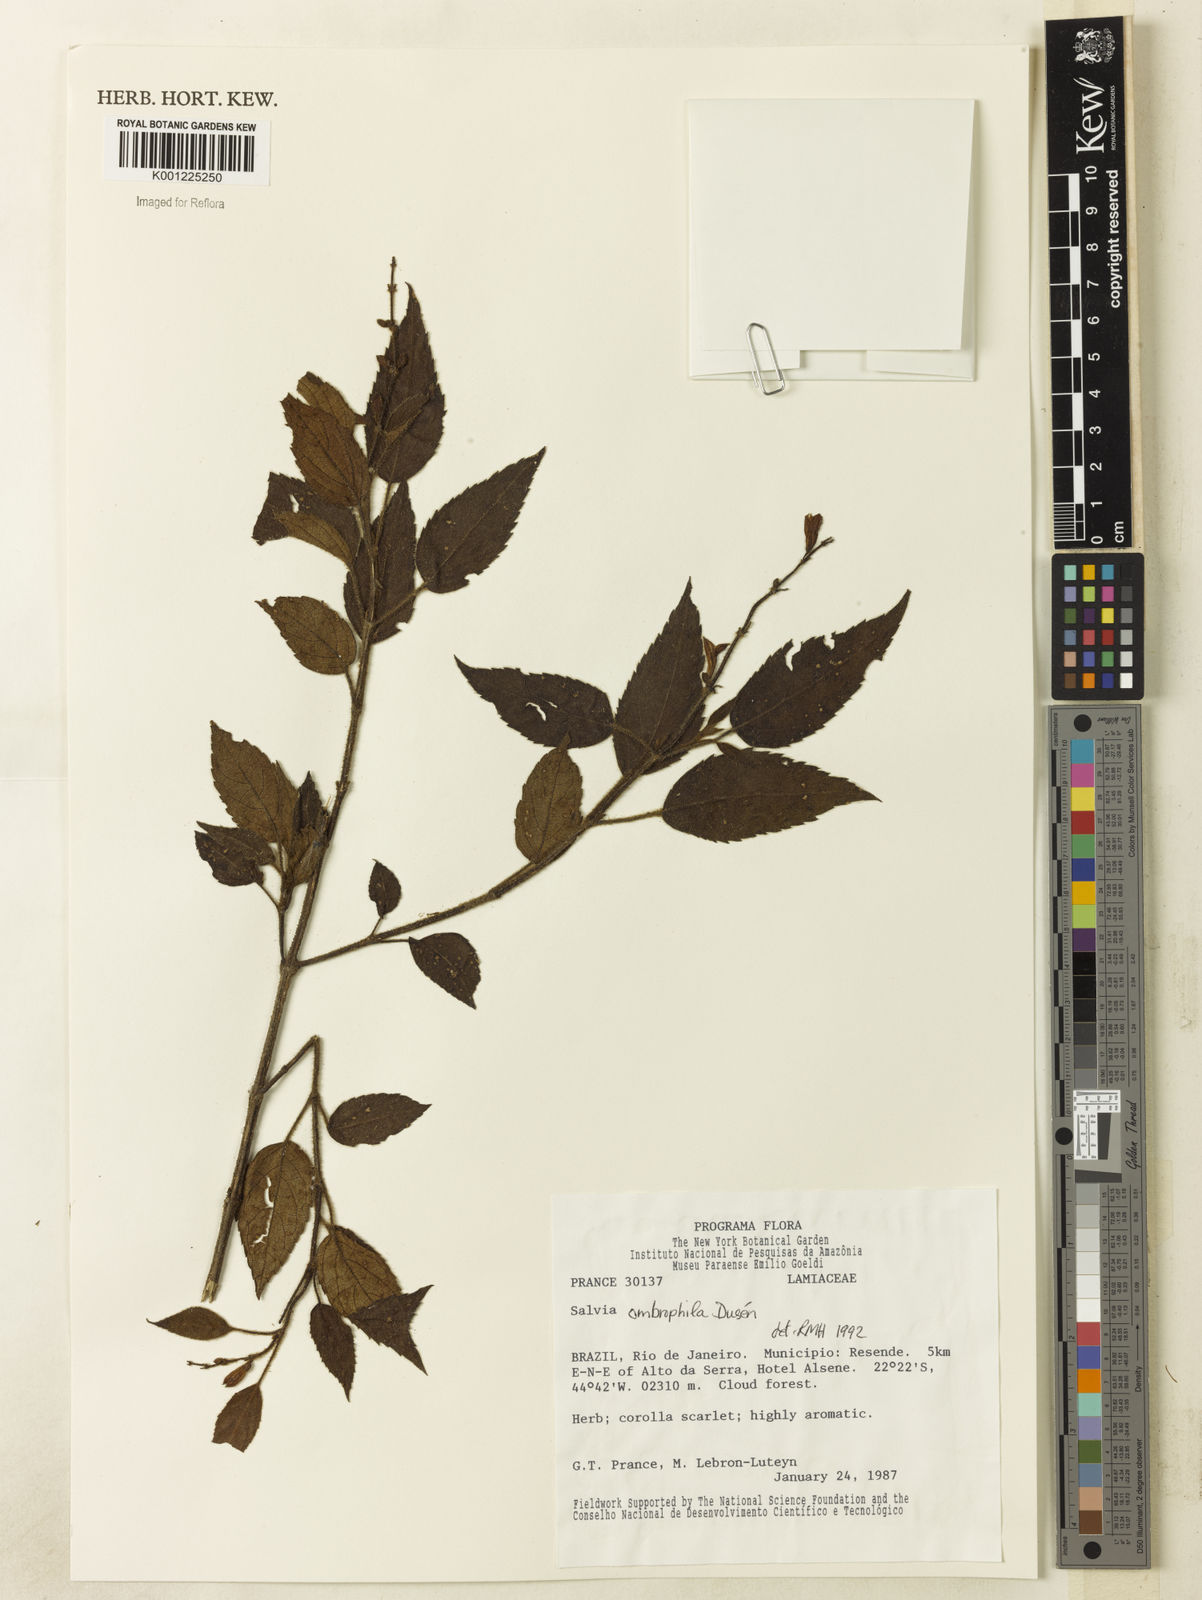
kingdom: Plantae
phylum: Tracheophyta
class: Magnoliopsida
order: Lamiales
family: Lamiaceae
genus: Salvia
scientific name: Salvia
